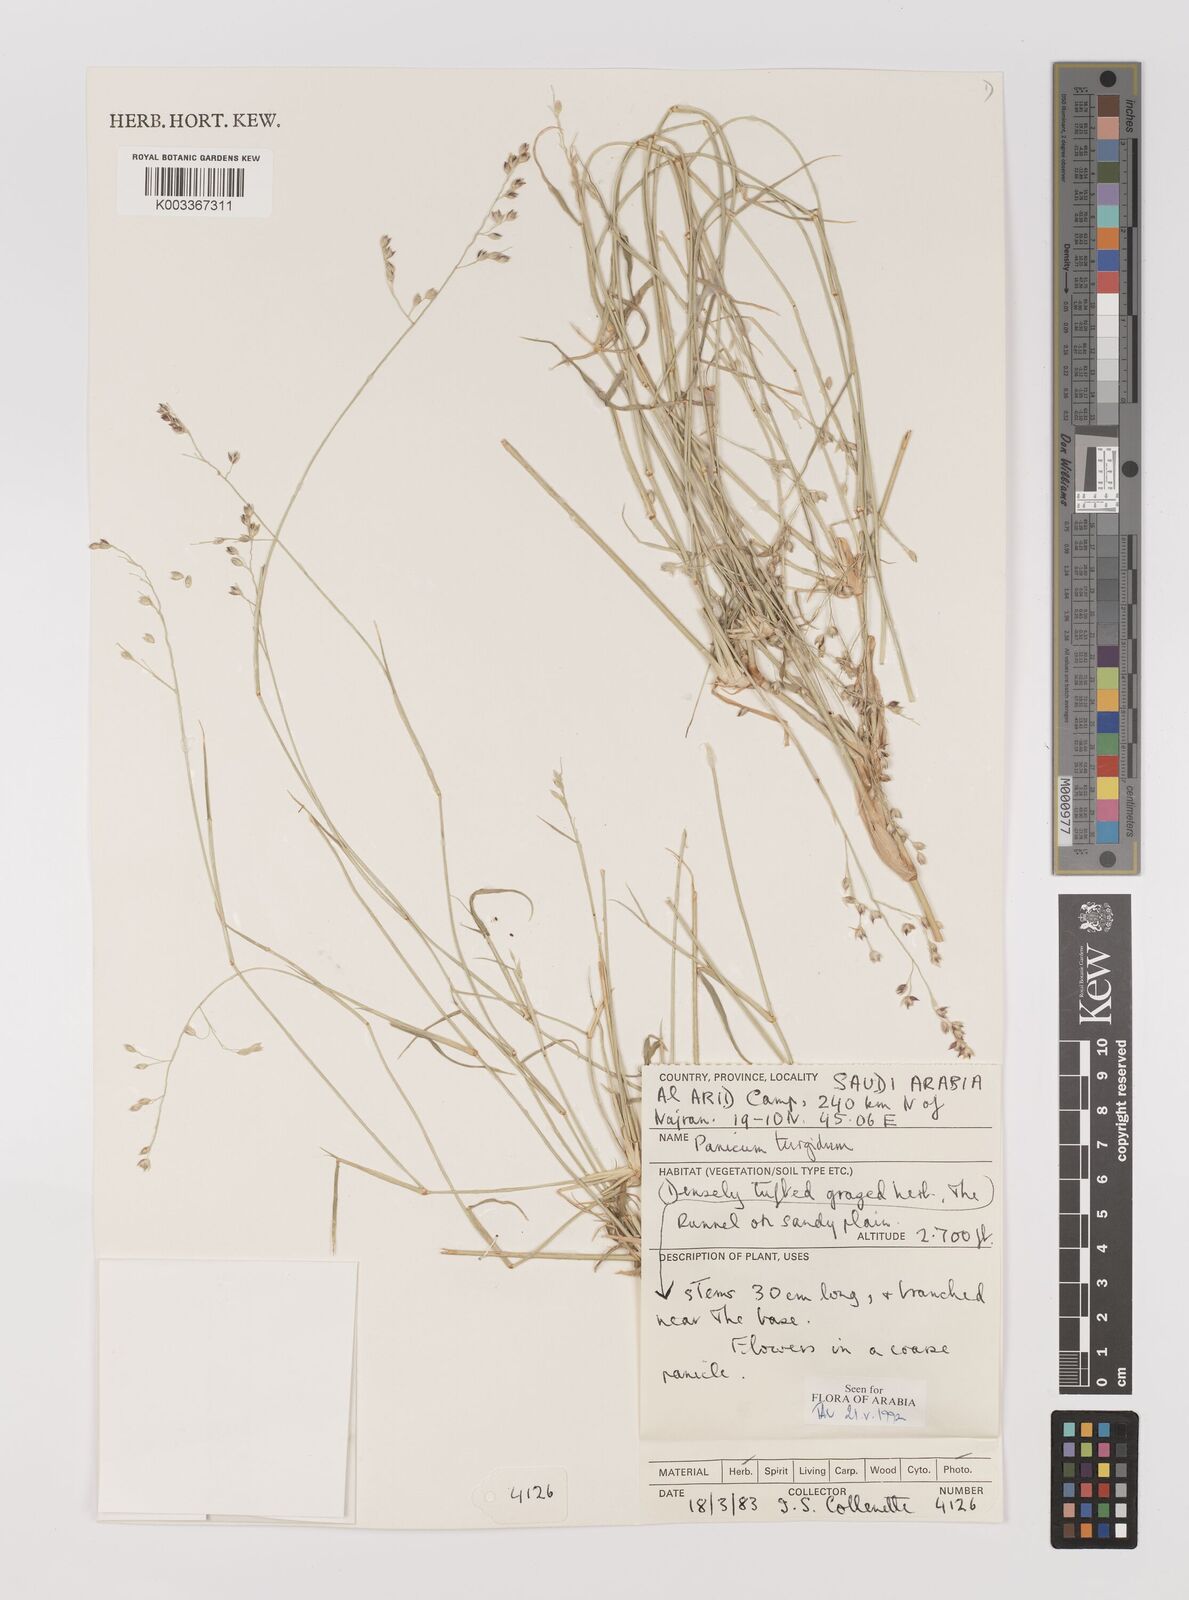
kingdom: Plantae
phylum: Tracheophyta
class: Liliopsida
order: Poales
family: Poaceae
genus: Panicum
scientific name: Panicum turgidum
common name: Desert grass
